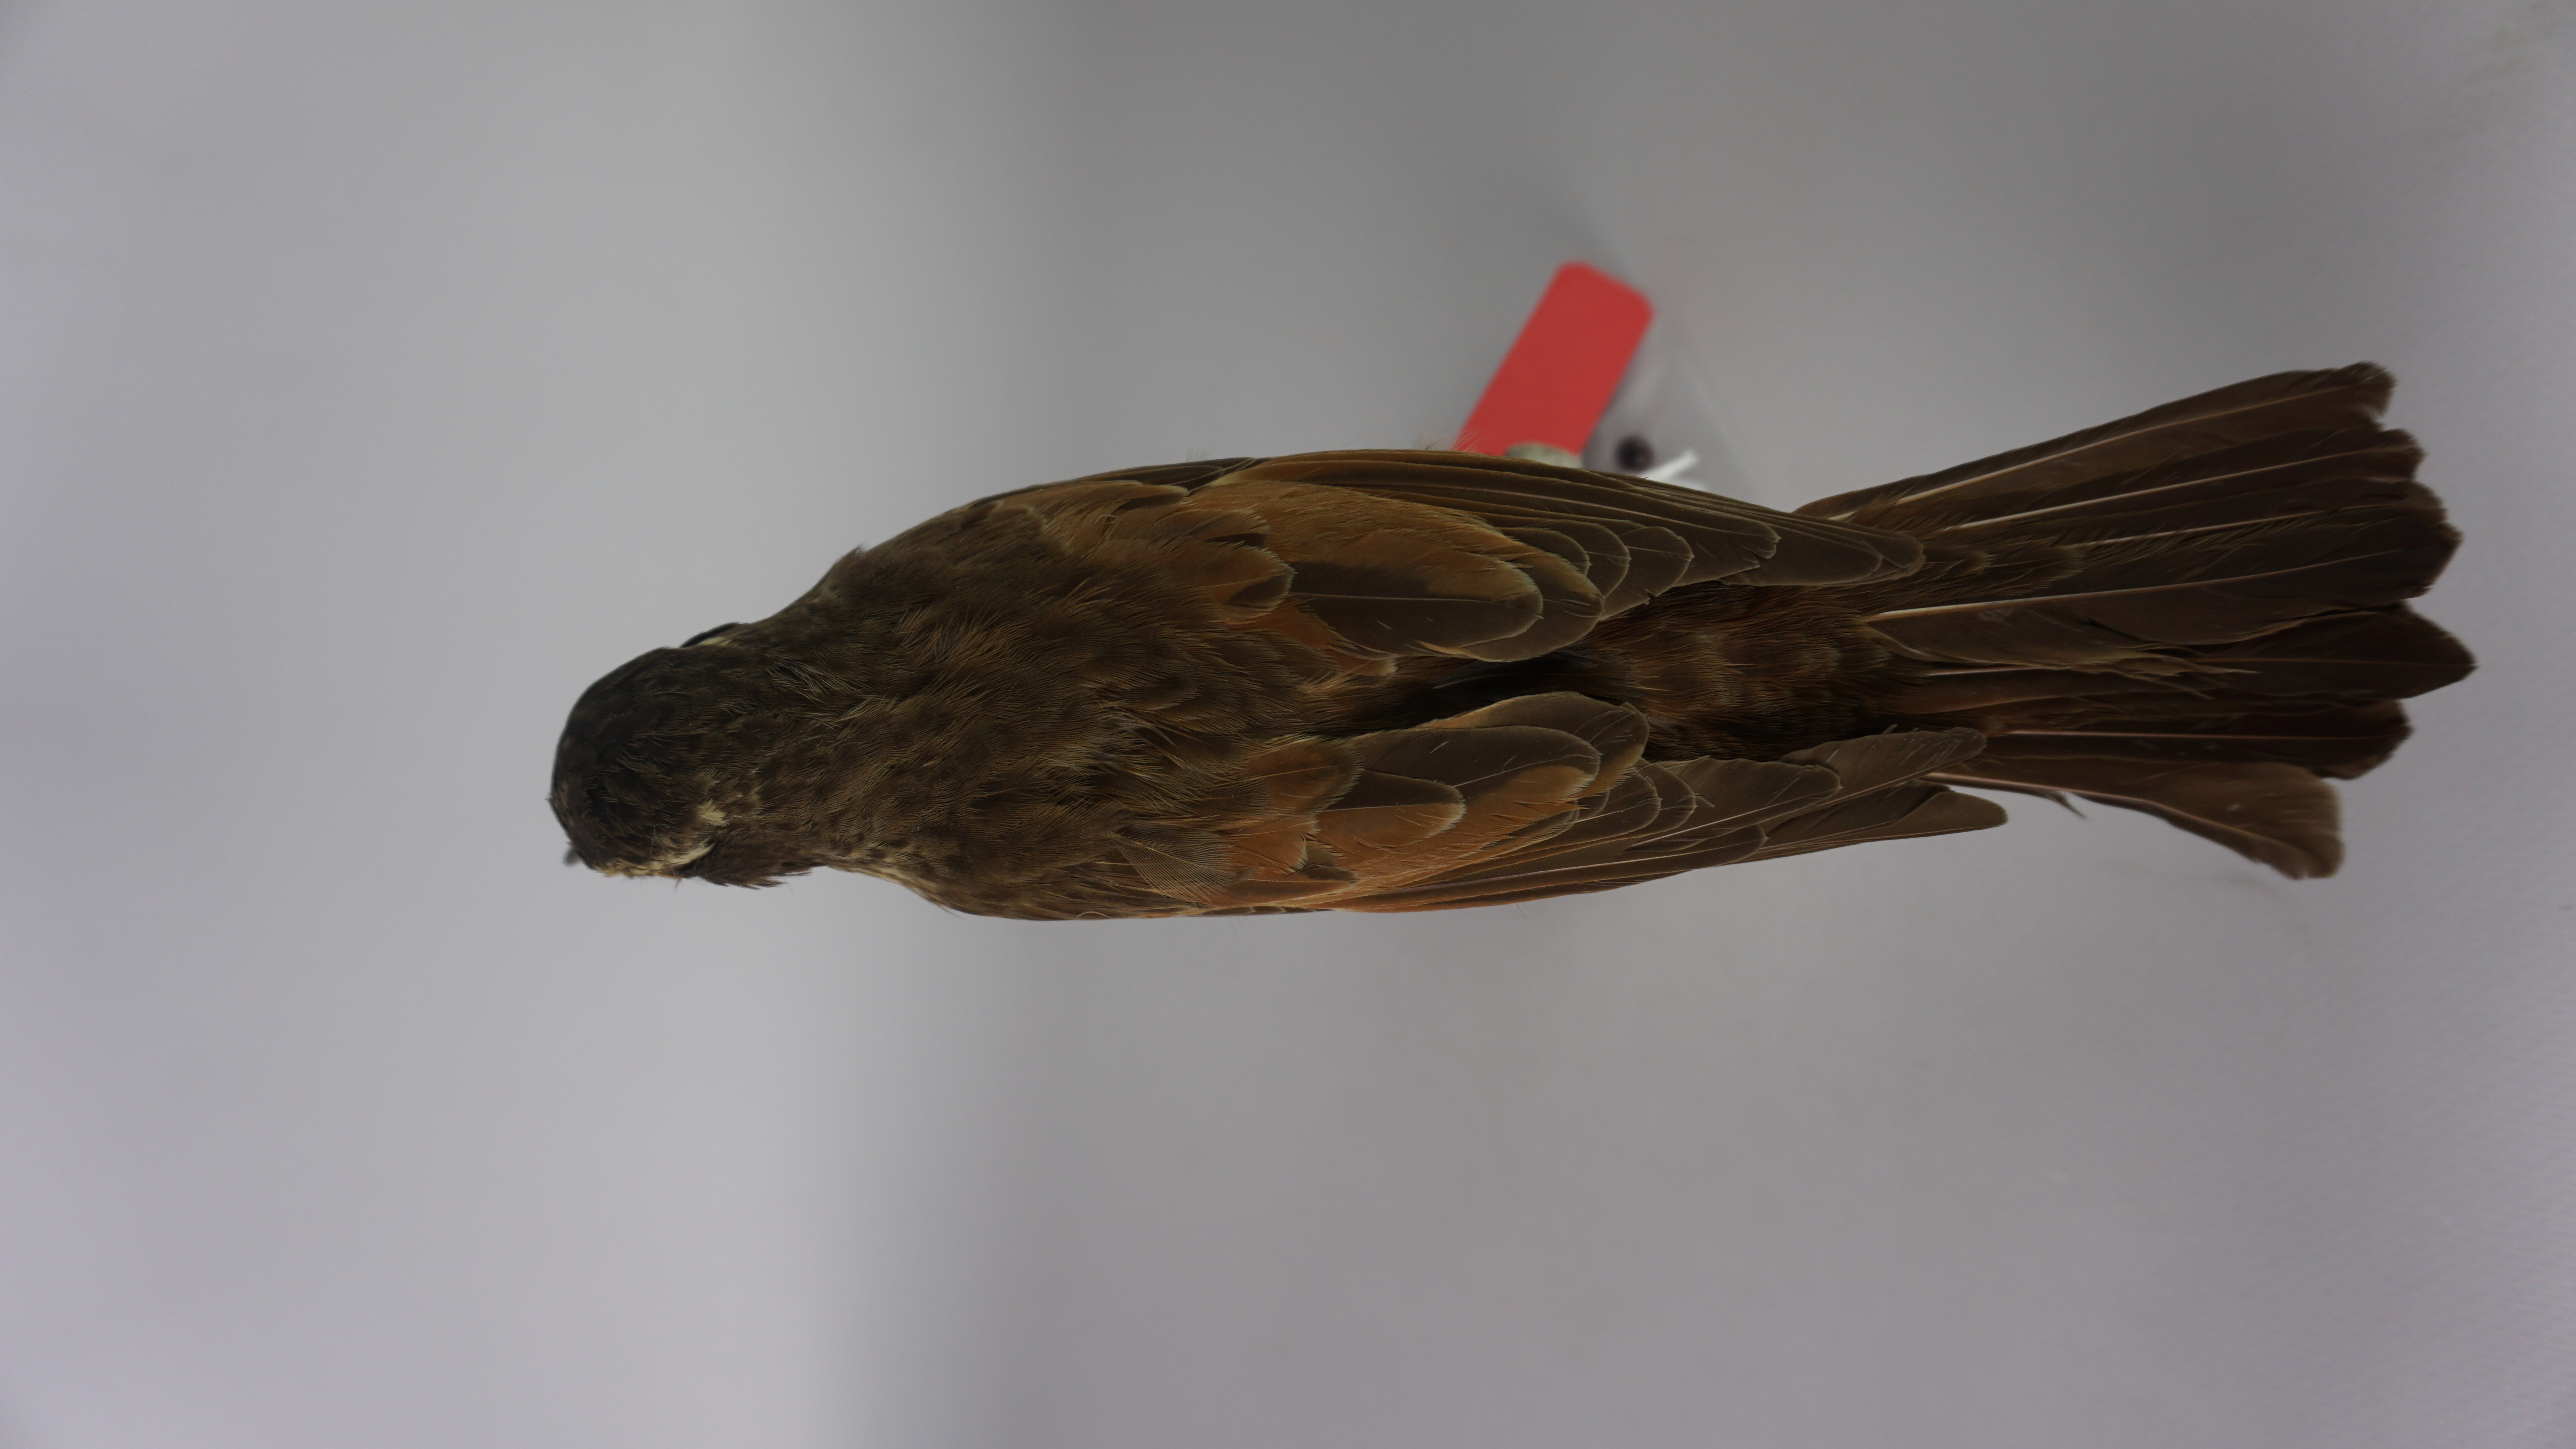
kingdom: Animalia
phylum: Chordata
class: Aves
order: Passeriformes
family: Turdidae
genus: Turdus
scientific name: Turdus eunomus
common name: Dusky thrush
